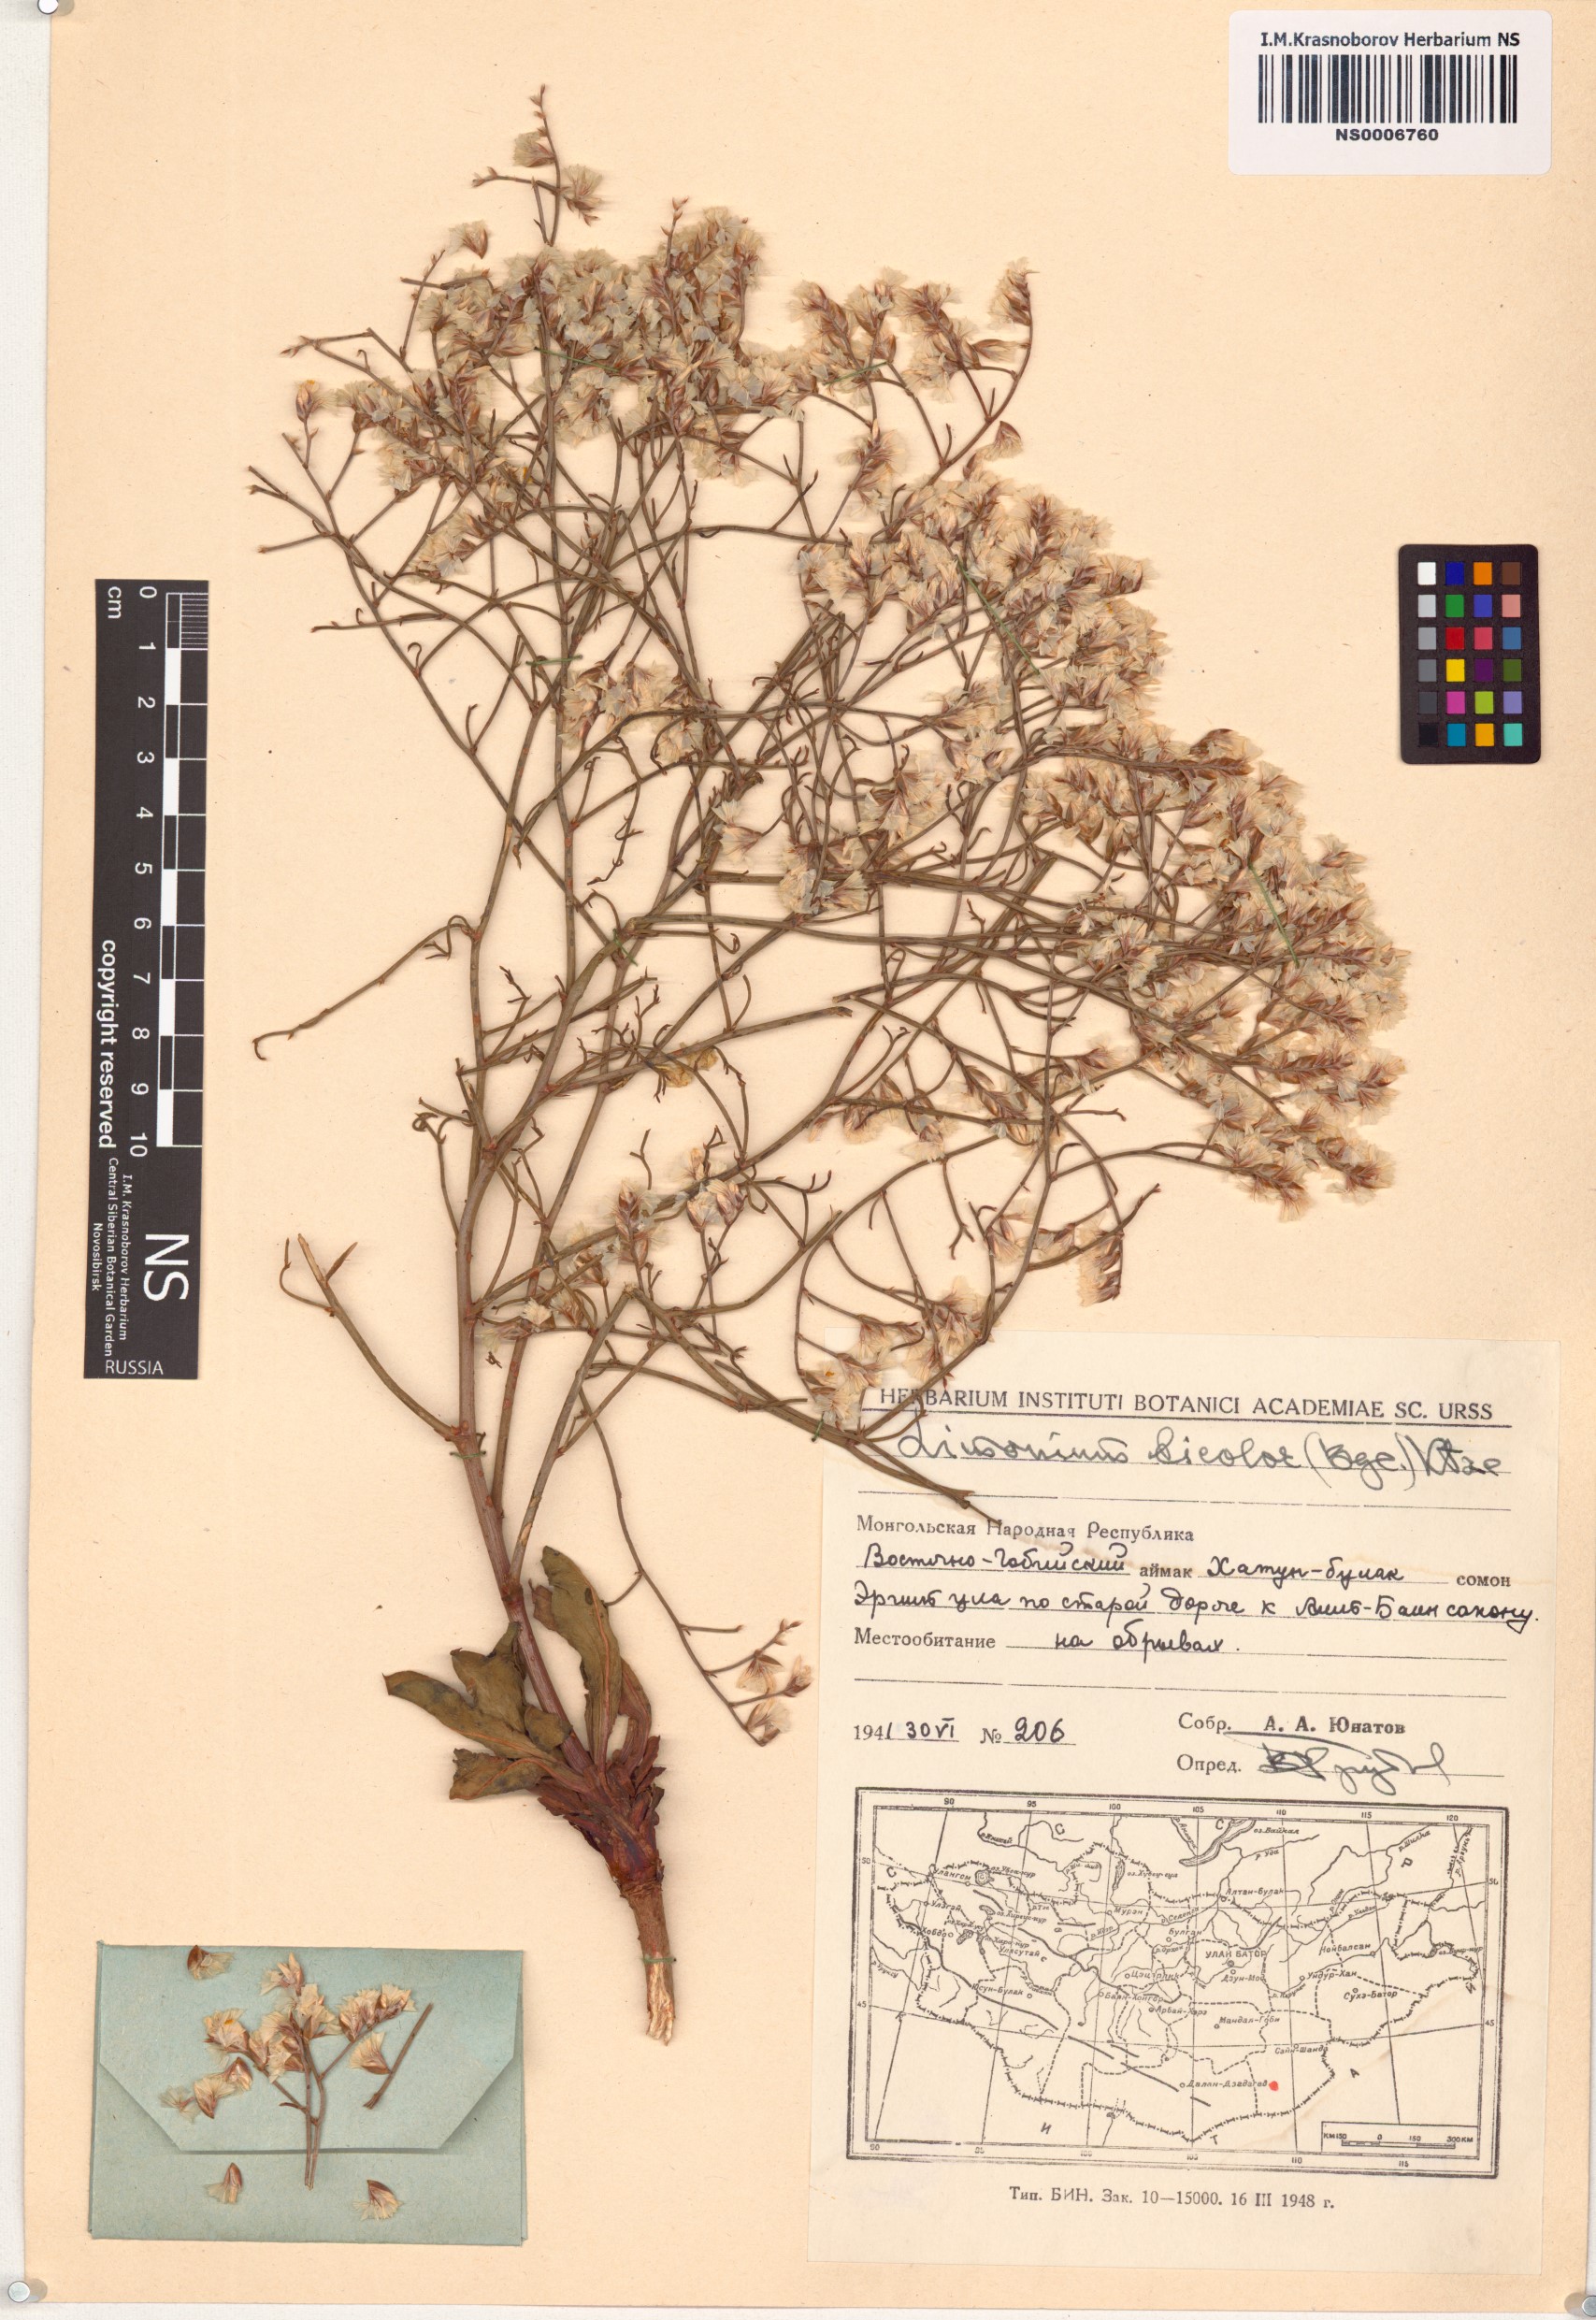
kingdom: Plantae
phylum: Tracheophyta
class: Magnoliopsida
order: Caryophyllales
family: Plumbaginaceae
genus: Limonium
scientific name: Limonium bicolor
